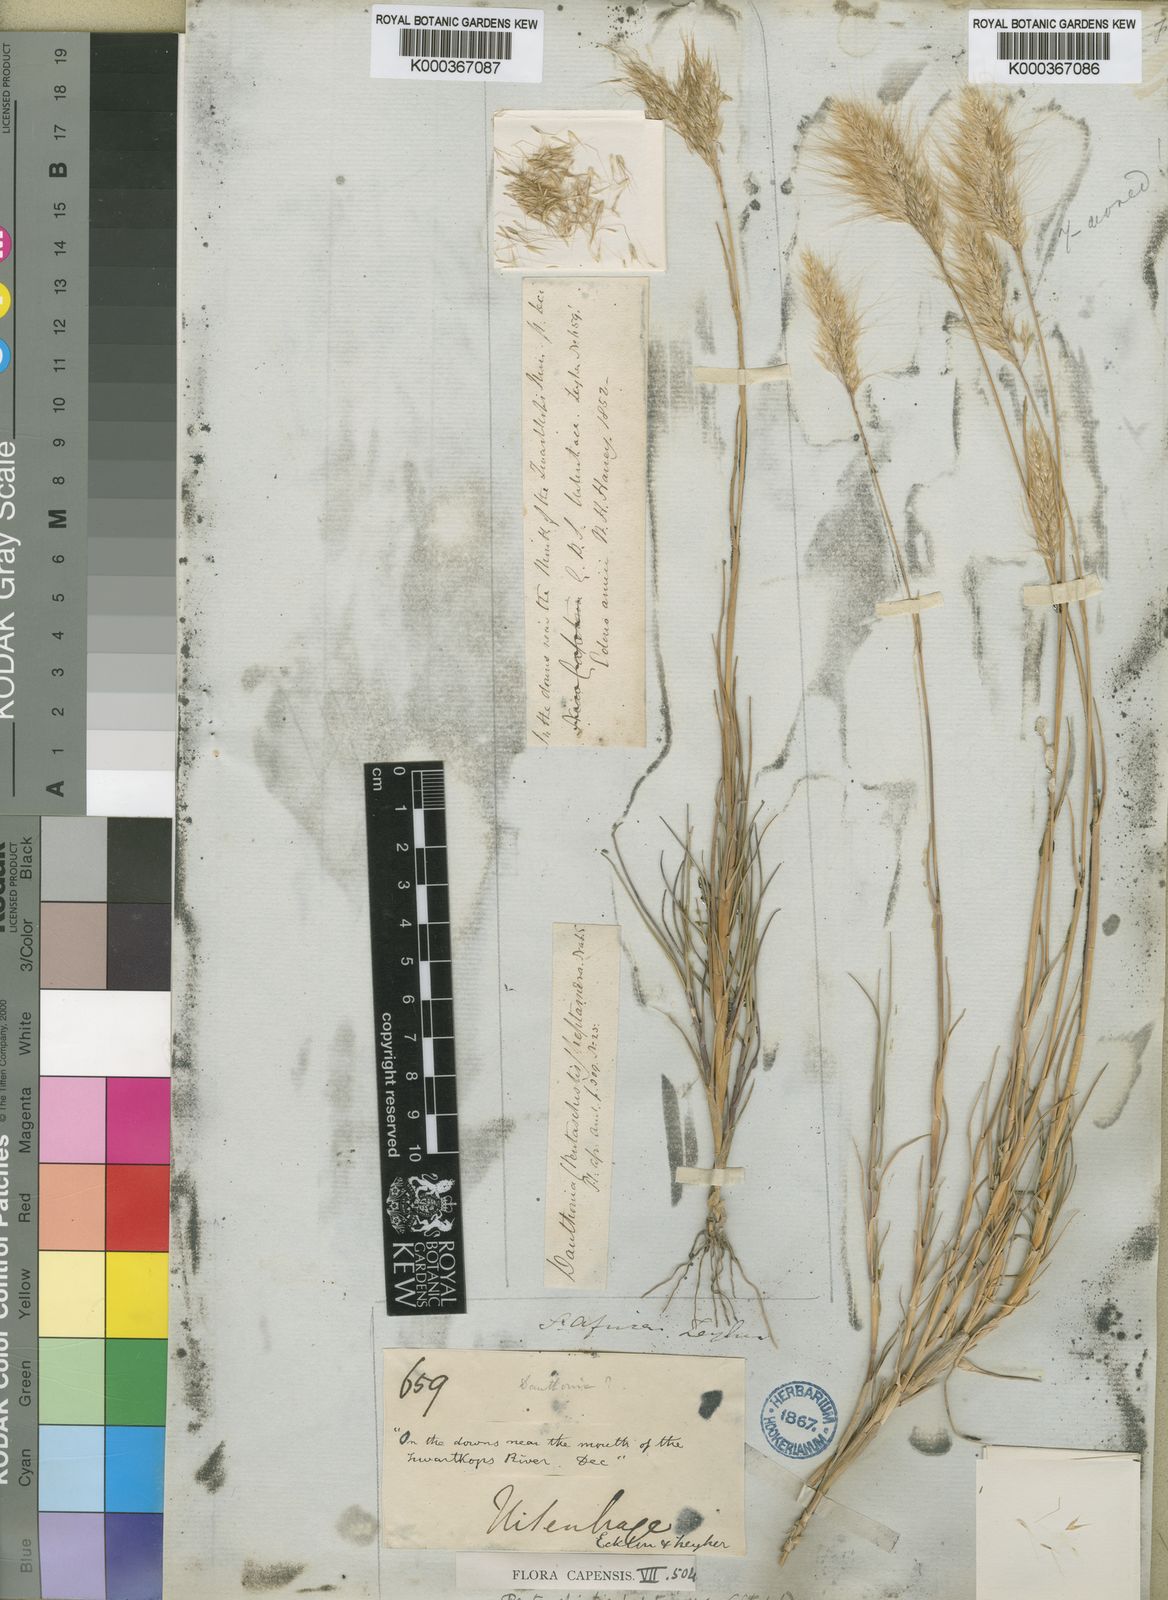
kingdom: Plantae
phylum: Tracheophyta
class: Liliopsida
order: Poales
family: Poaceae
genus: Pentameris
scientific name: Pentameris heptamera
